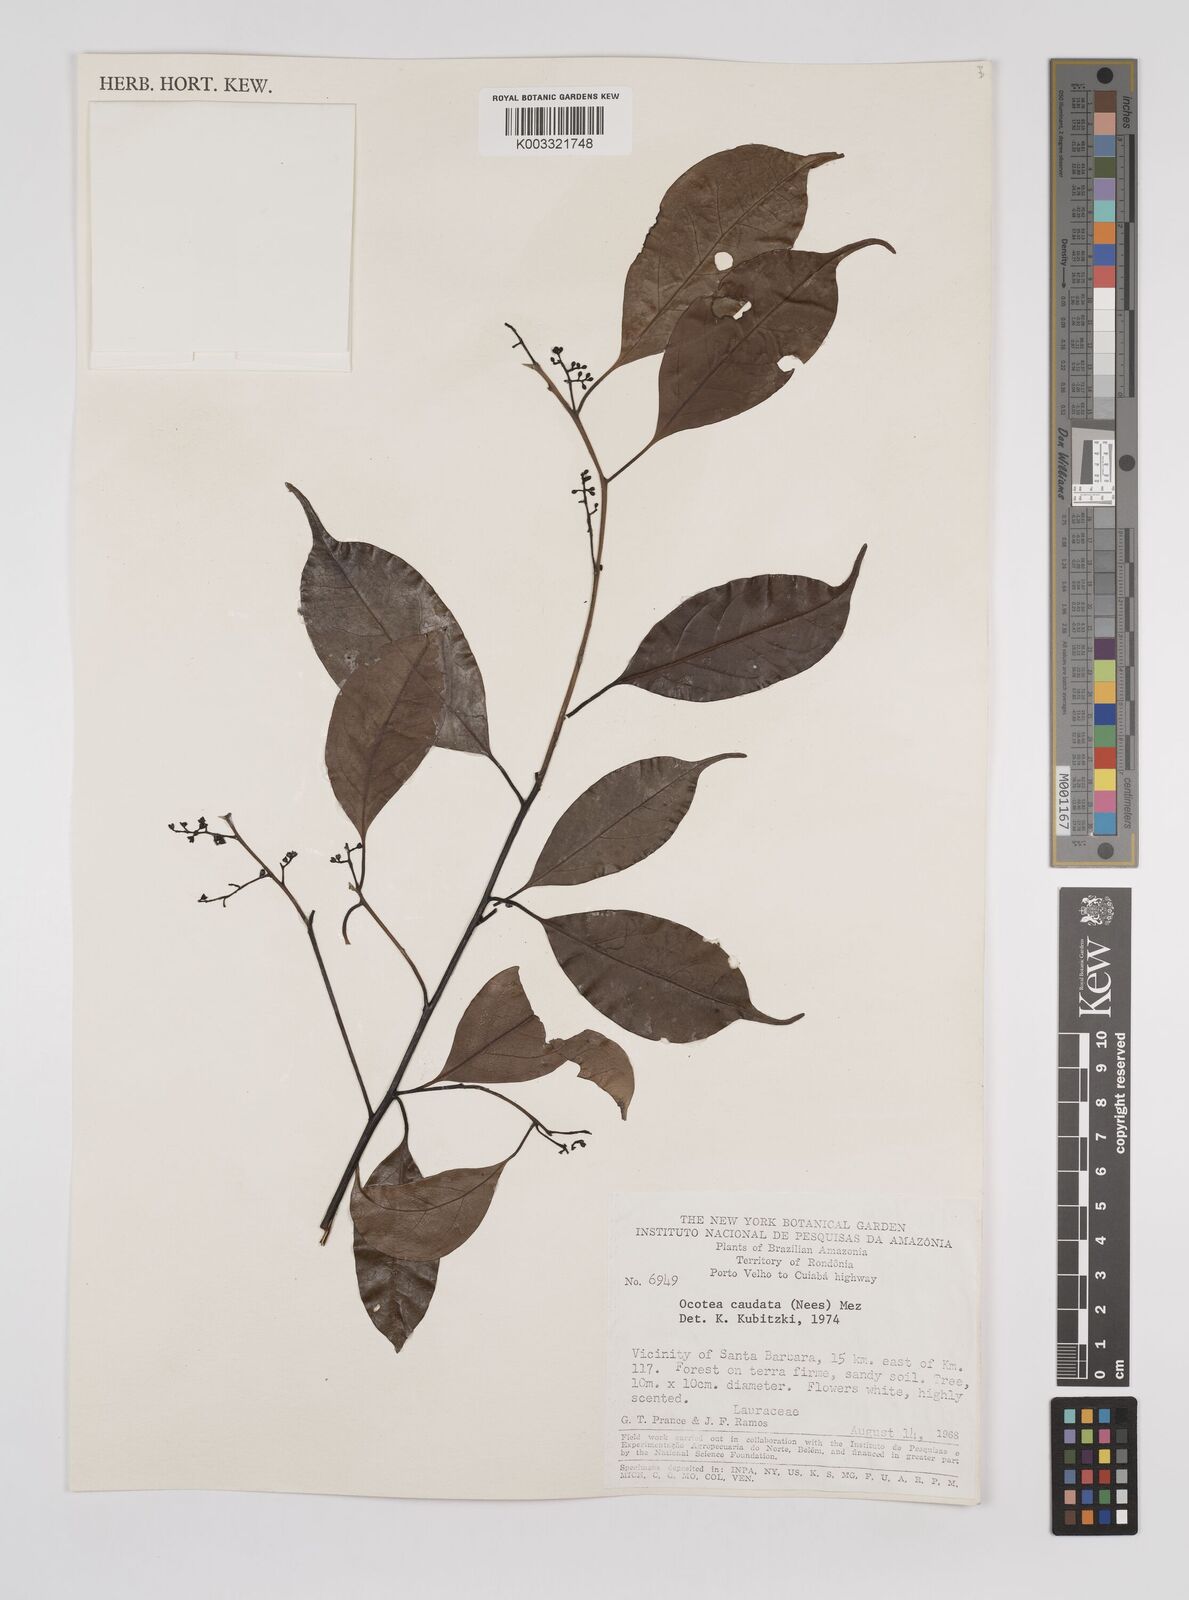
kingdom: Plantae
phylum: Tracheophyta
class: Magnoliopsida
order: Laurales
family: Lauraceae
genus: Ocotea
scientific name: Ocotea leptobotra
